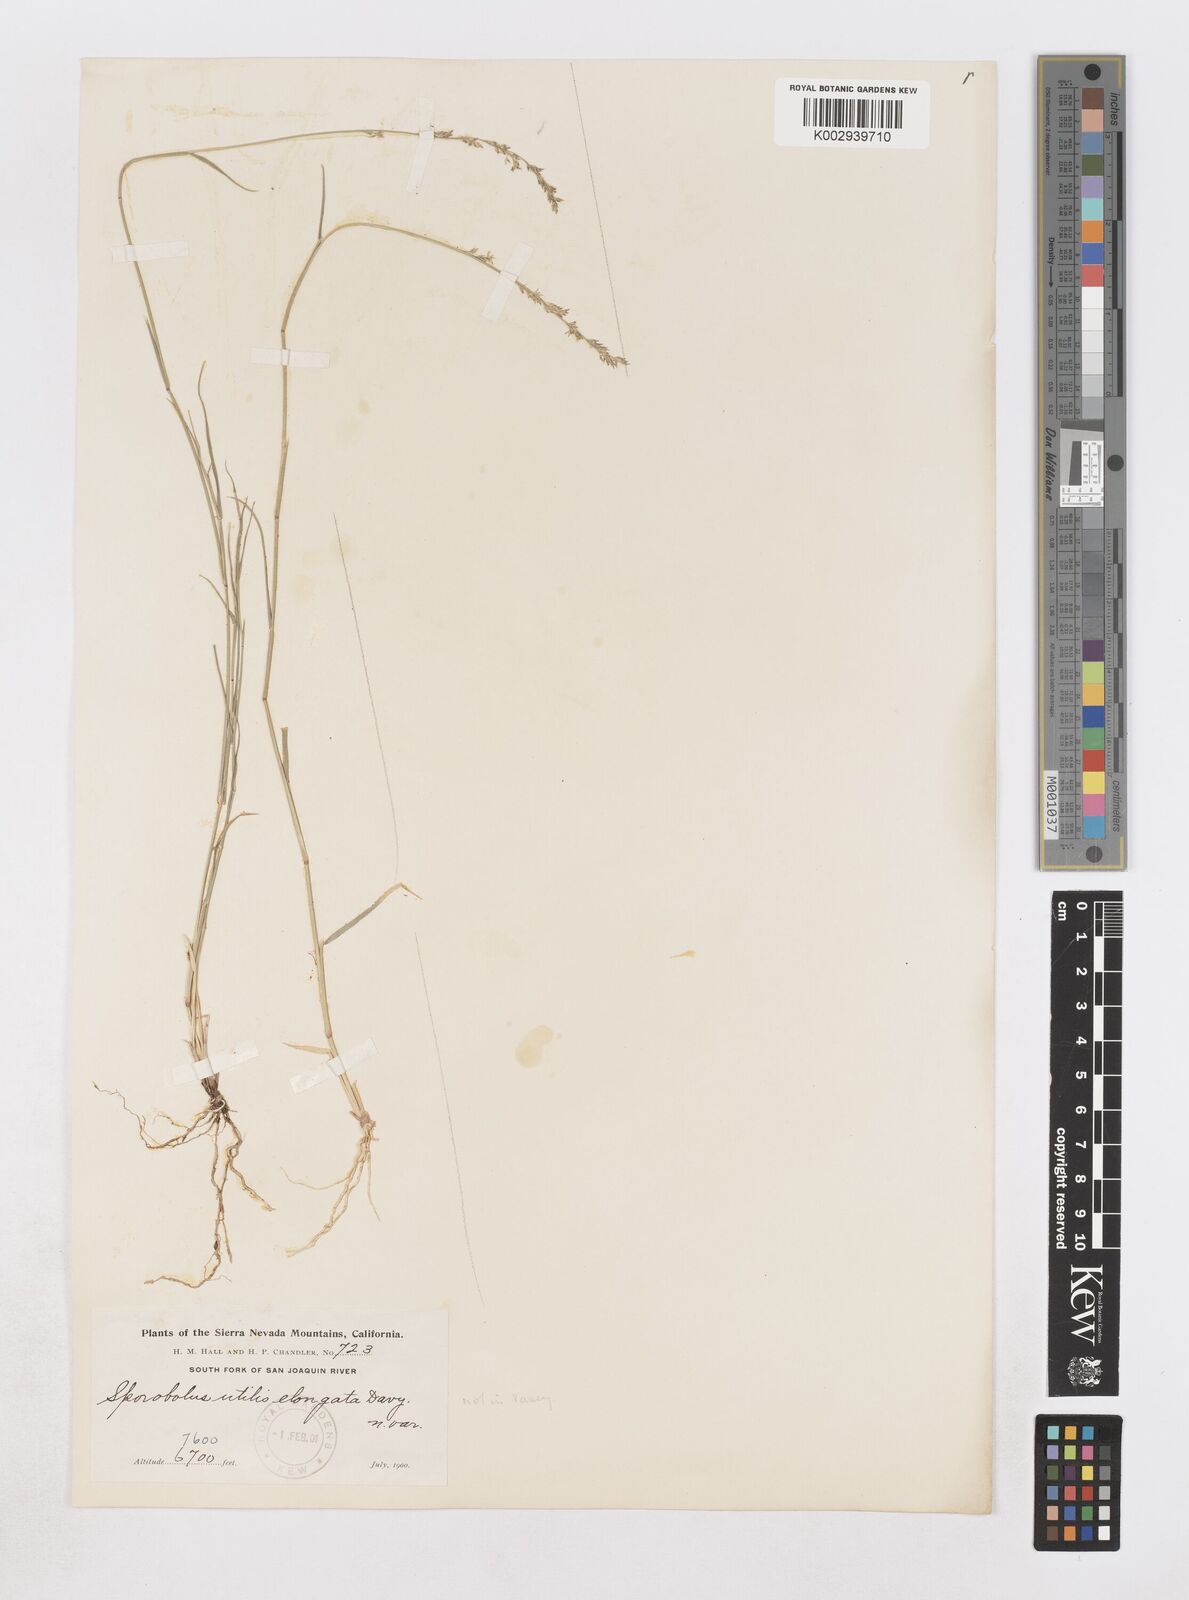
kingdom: Plantae
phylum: Tracheophyta
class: Liliopsida
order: Poales
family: Poaceae
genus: Muhlenbergia
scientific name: Muhlenbergia utilis
